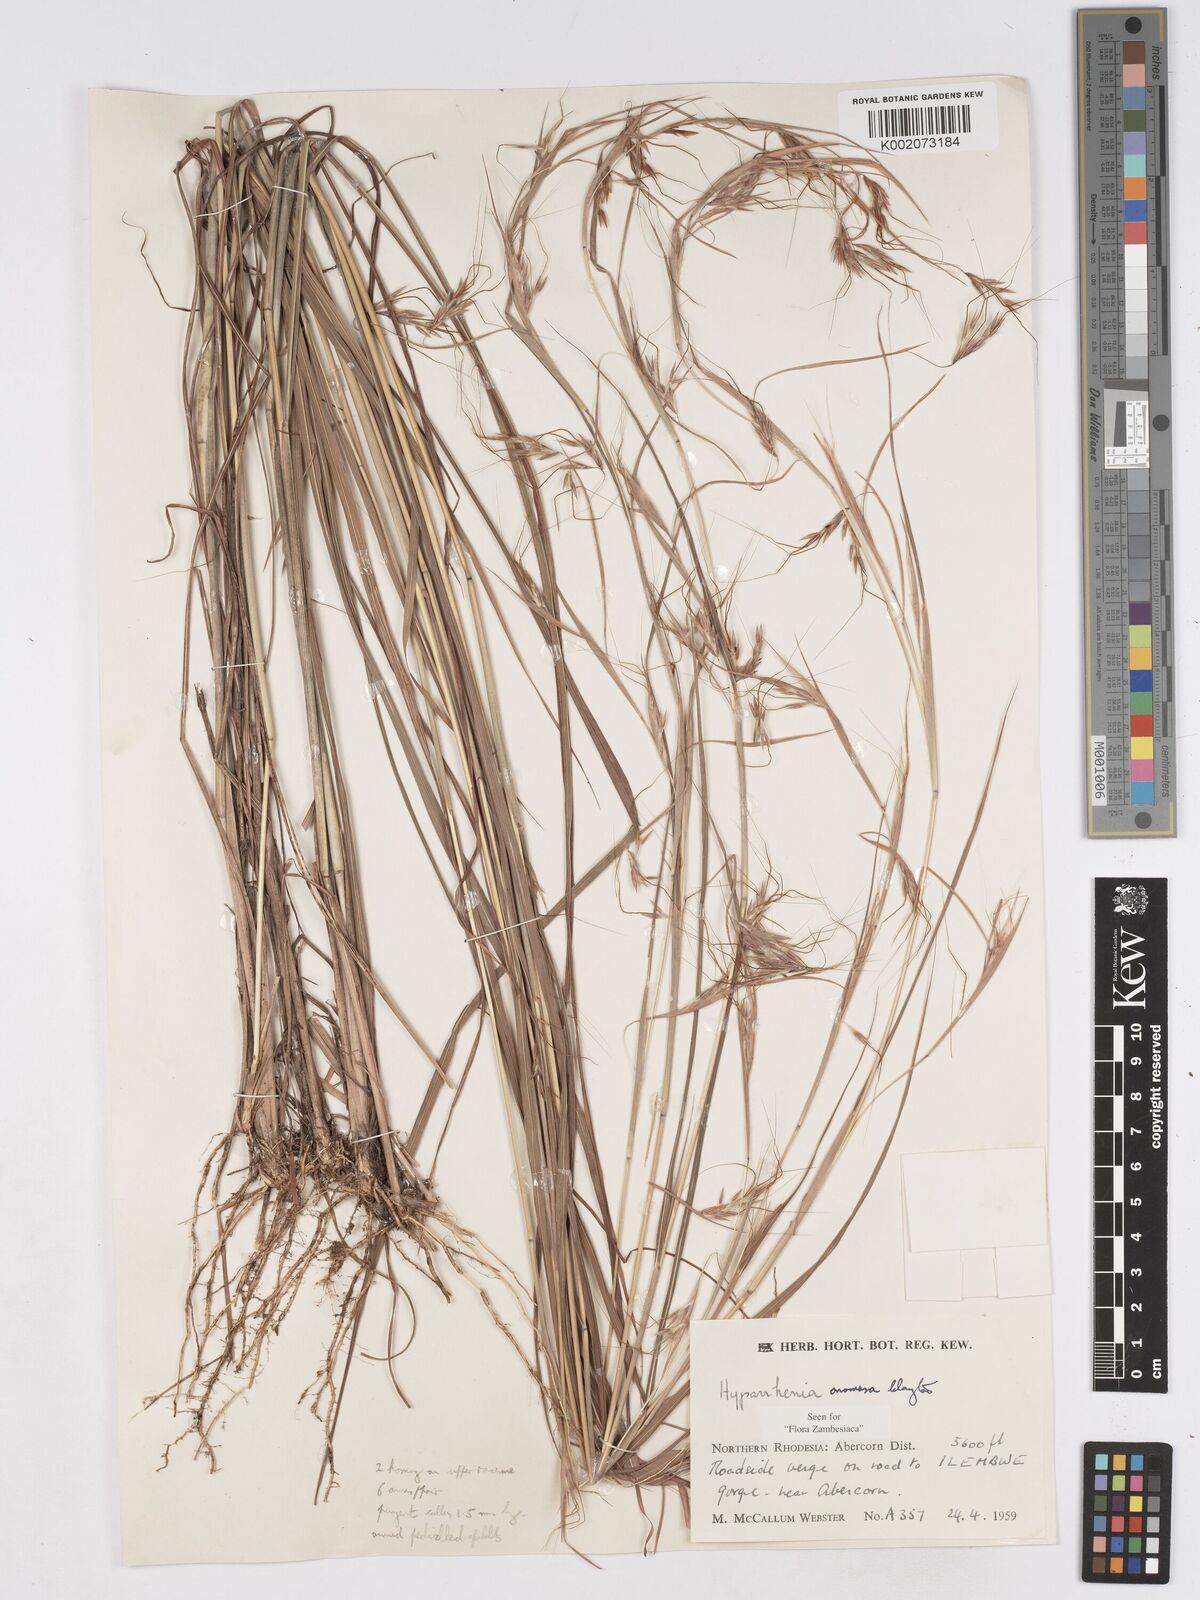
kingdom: Plantae
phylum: Tracheophyta
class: Liliopsida
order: Poales
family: Poaceae
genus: Hyparrhenia
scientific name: Hyparrhenia anamesa
